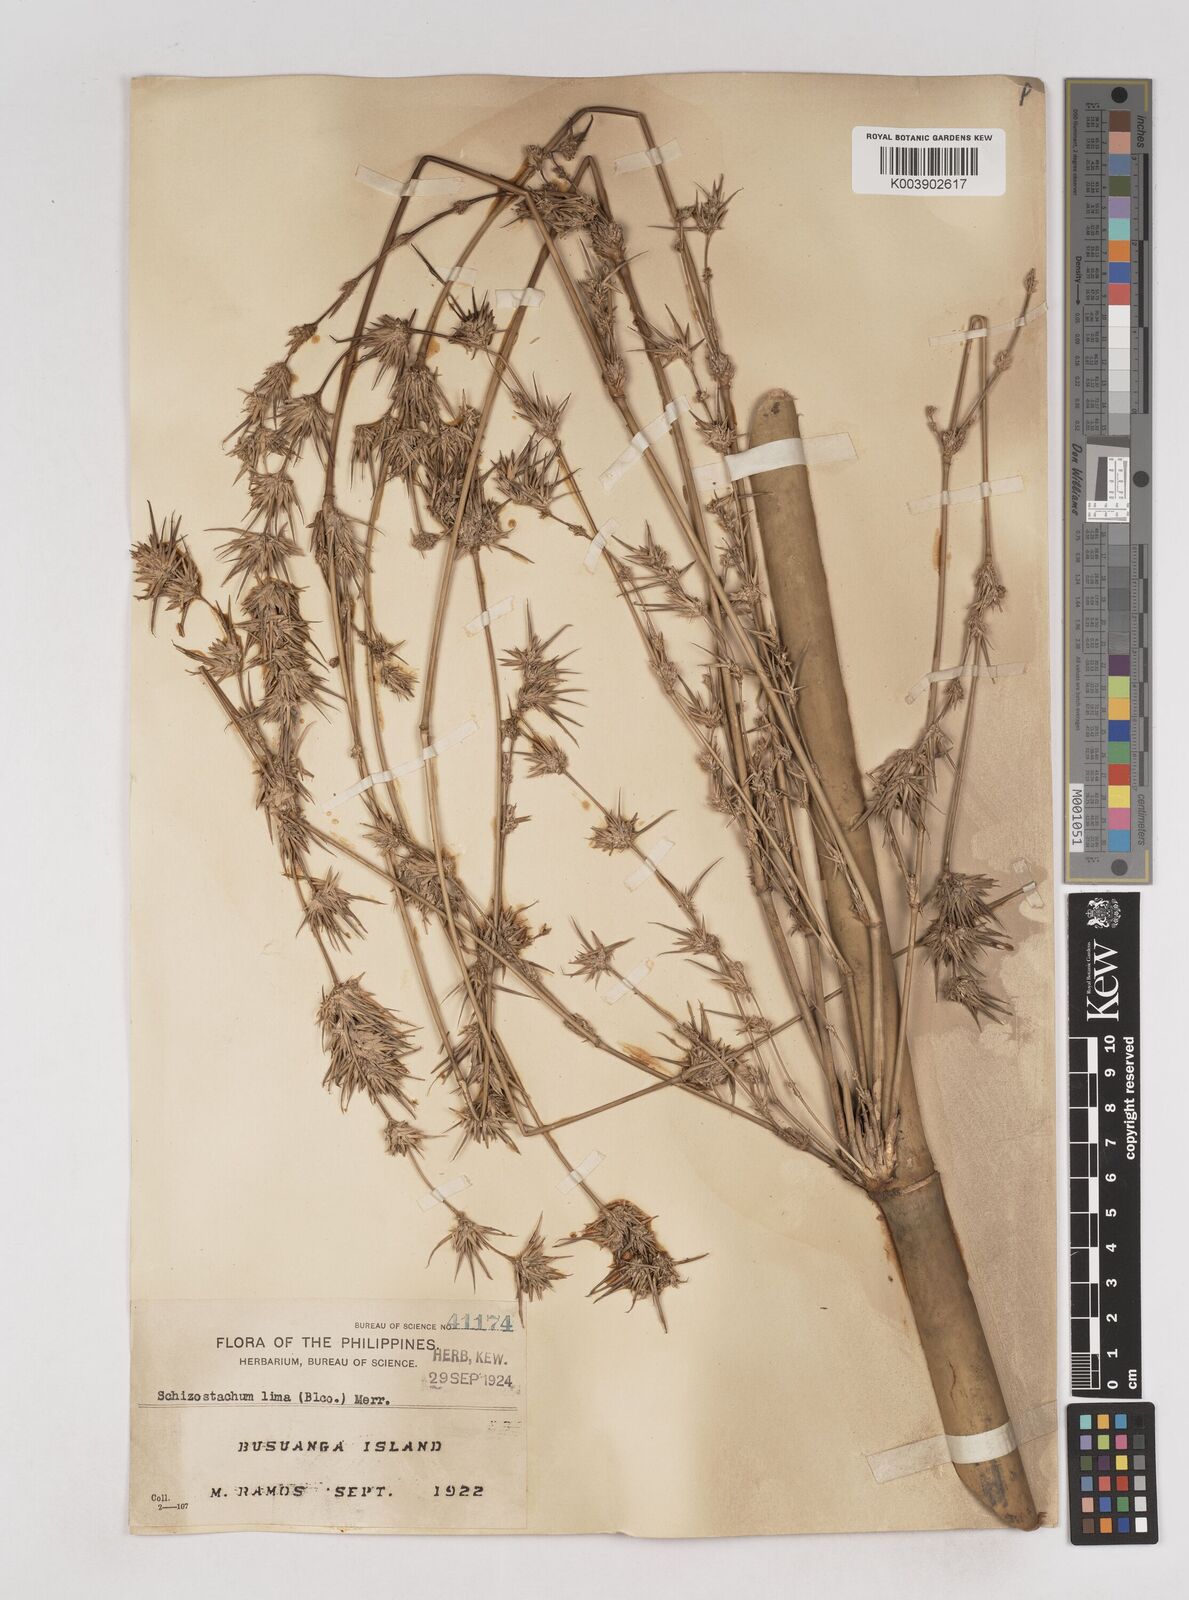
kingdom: Plantae
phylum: Tracheophyta
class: Liliopsida
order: Poales
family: Poaceae
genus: Schizostachyum
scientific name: Schizostachyum lima
